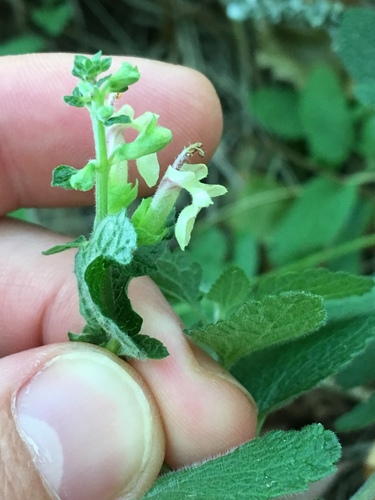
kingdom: Plantae
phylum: Tracheophyta
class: Magnoliopsida
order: Lamiales
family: Lamiaceae
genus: Teucrium
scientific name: Teucrium scorodonia
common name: Woodland germander
